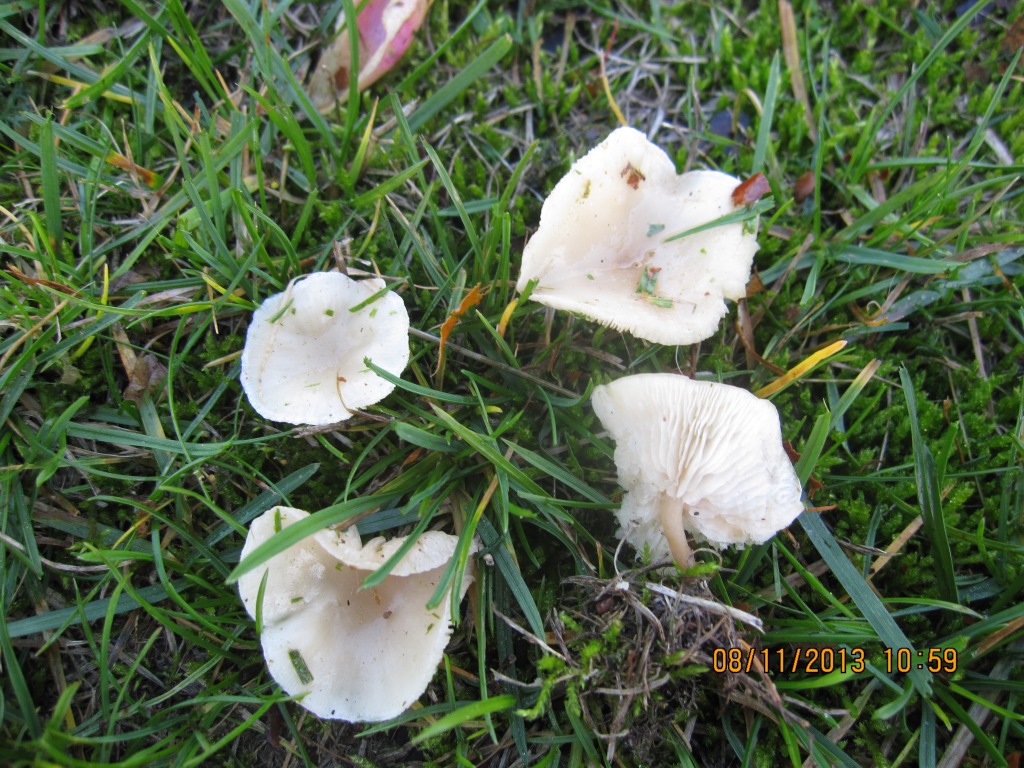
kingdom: Fungi
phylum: Basidiomycota
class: Agaricomycetes
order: Agaricales
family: Tricholomataceae
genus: Clitocybe
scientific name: Clitocybe rivulosa
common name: eng-tragthat
